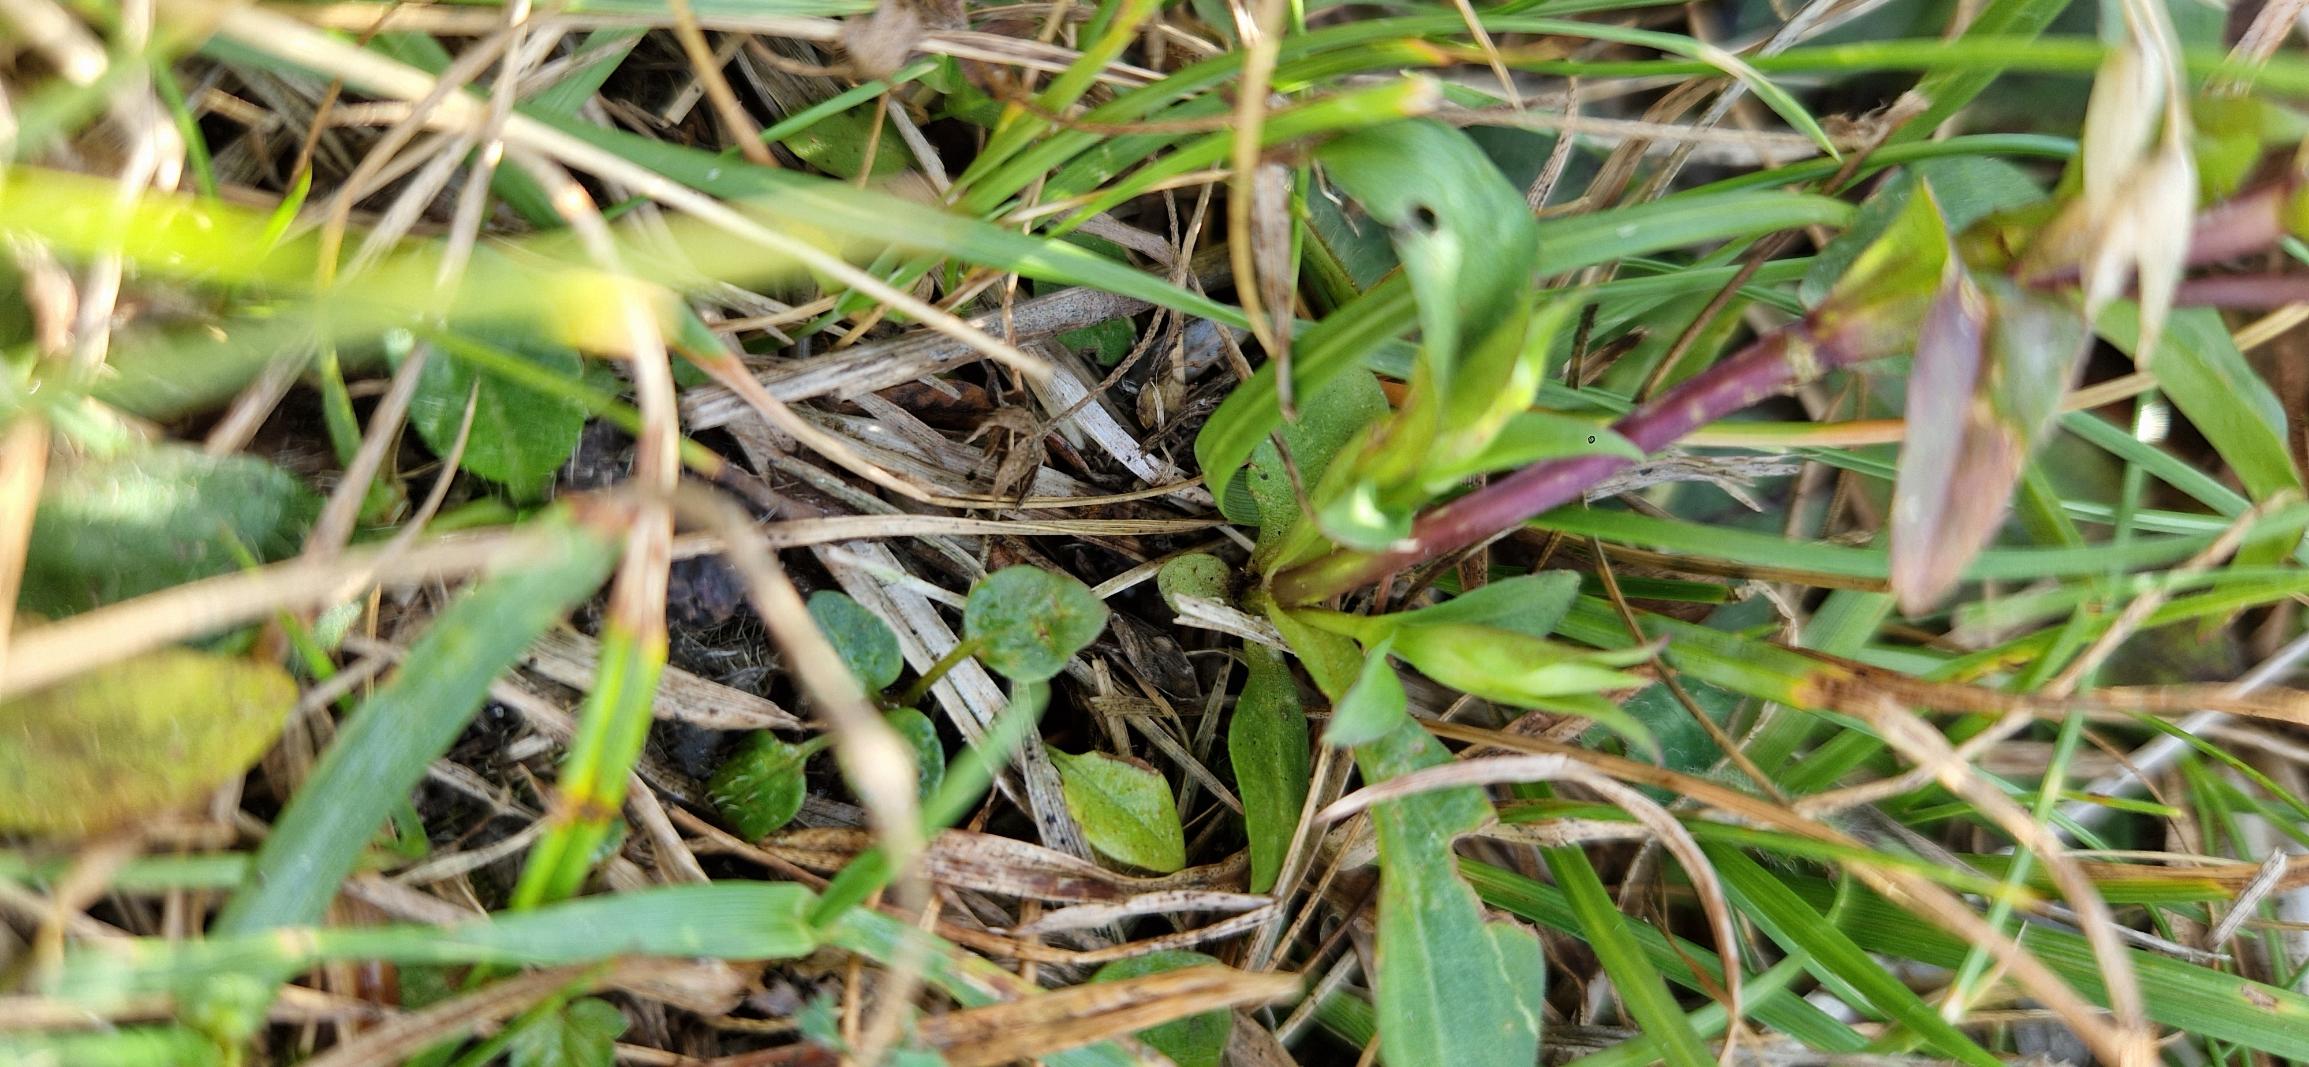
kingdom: Plantae
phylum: Tracheophyta
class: Magnoliopsida
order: Gentianales
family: Gentianaceae
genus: Gentianella
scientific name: Gentianella campestris
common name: Baltisk ensian
